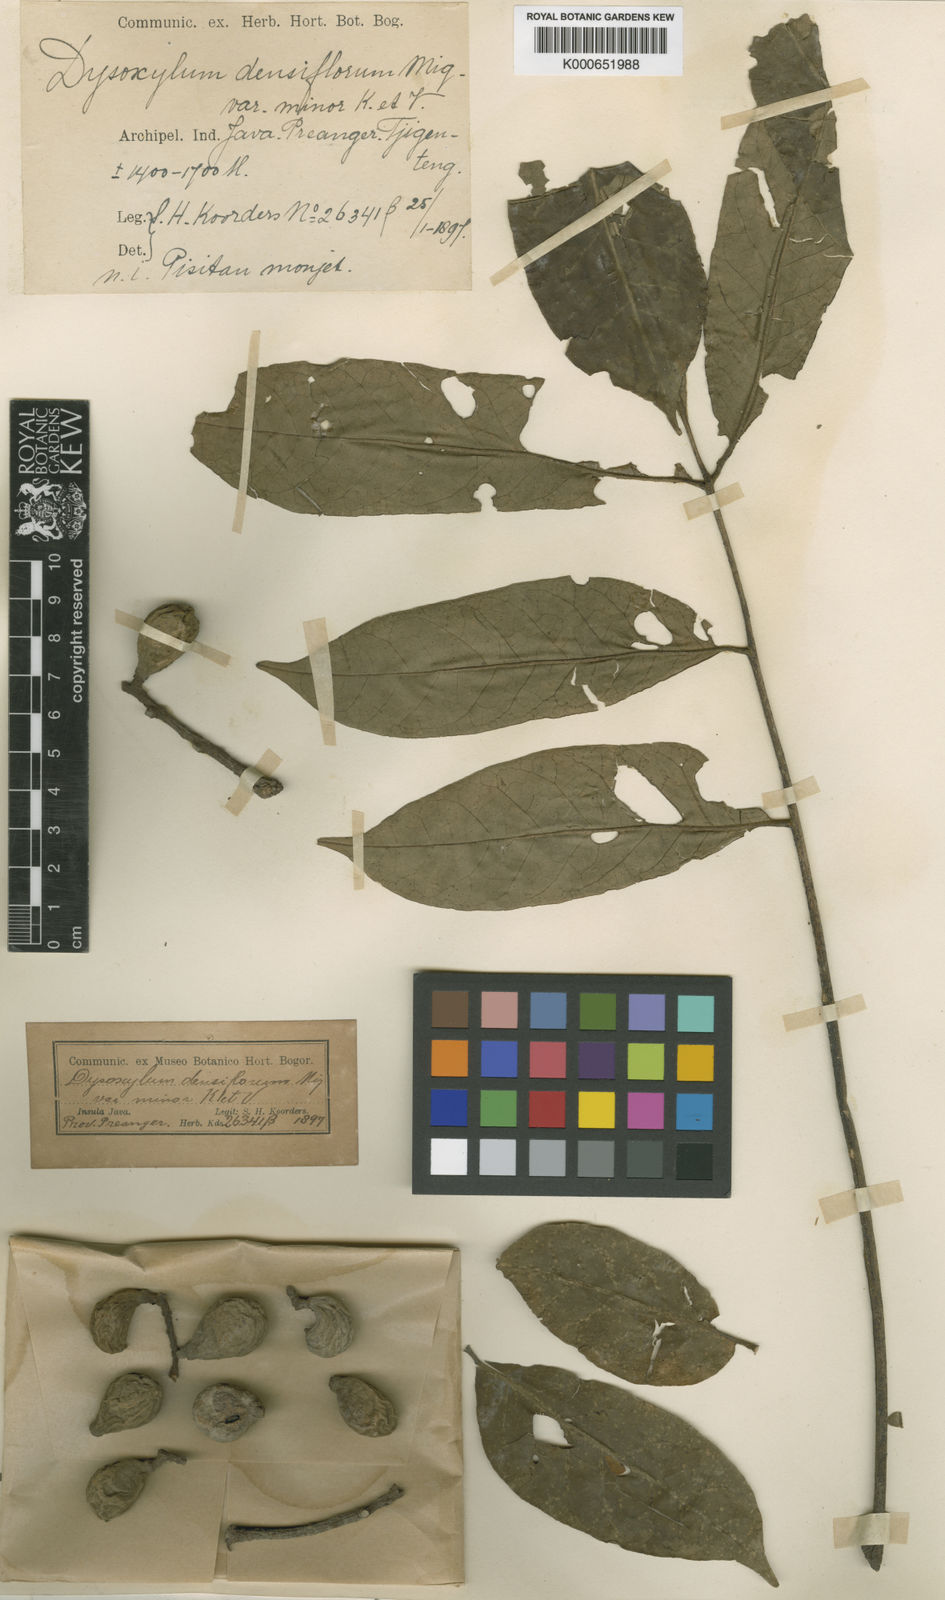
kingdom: Plantae
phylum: Tracheophyta
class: Magnoliopsida
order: Sapindales
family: Meliaceae
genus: Epicharis
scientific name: Epicharis densiflora
